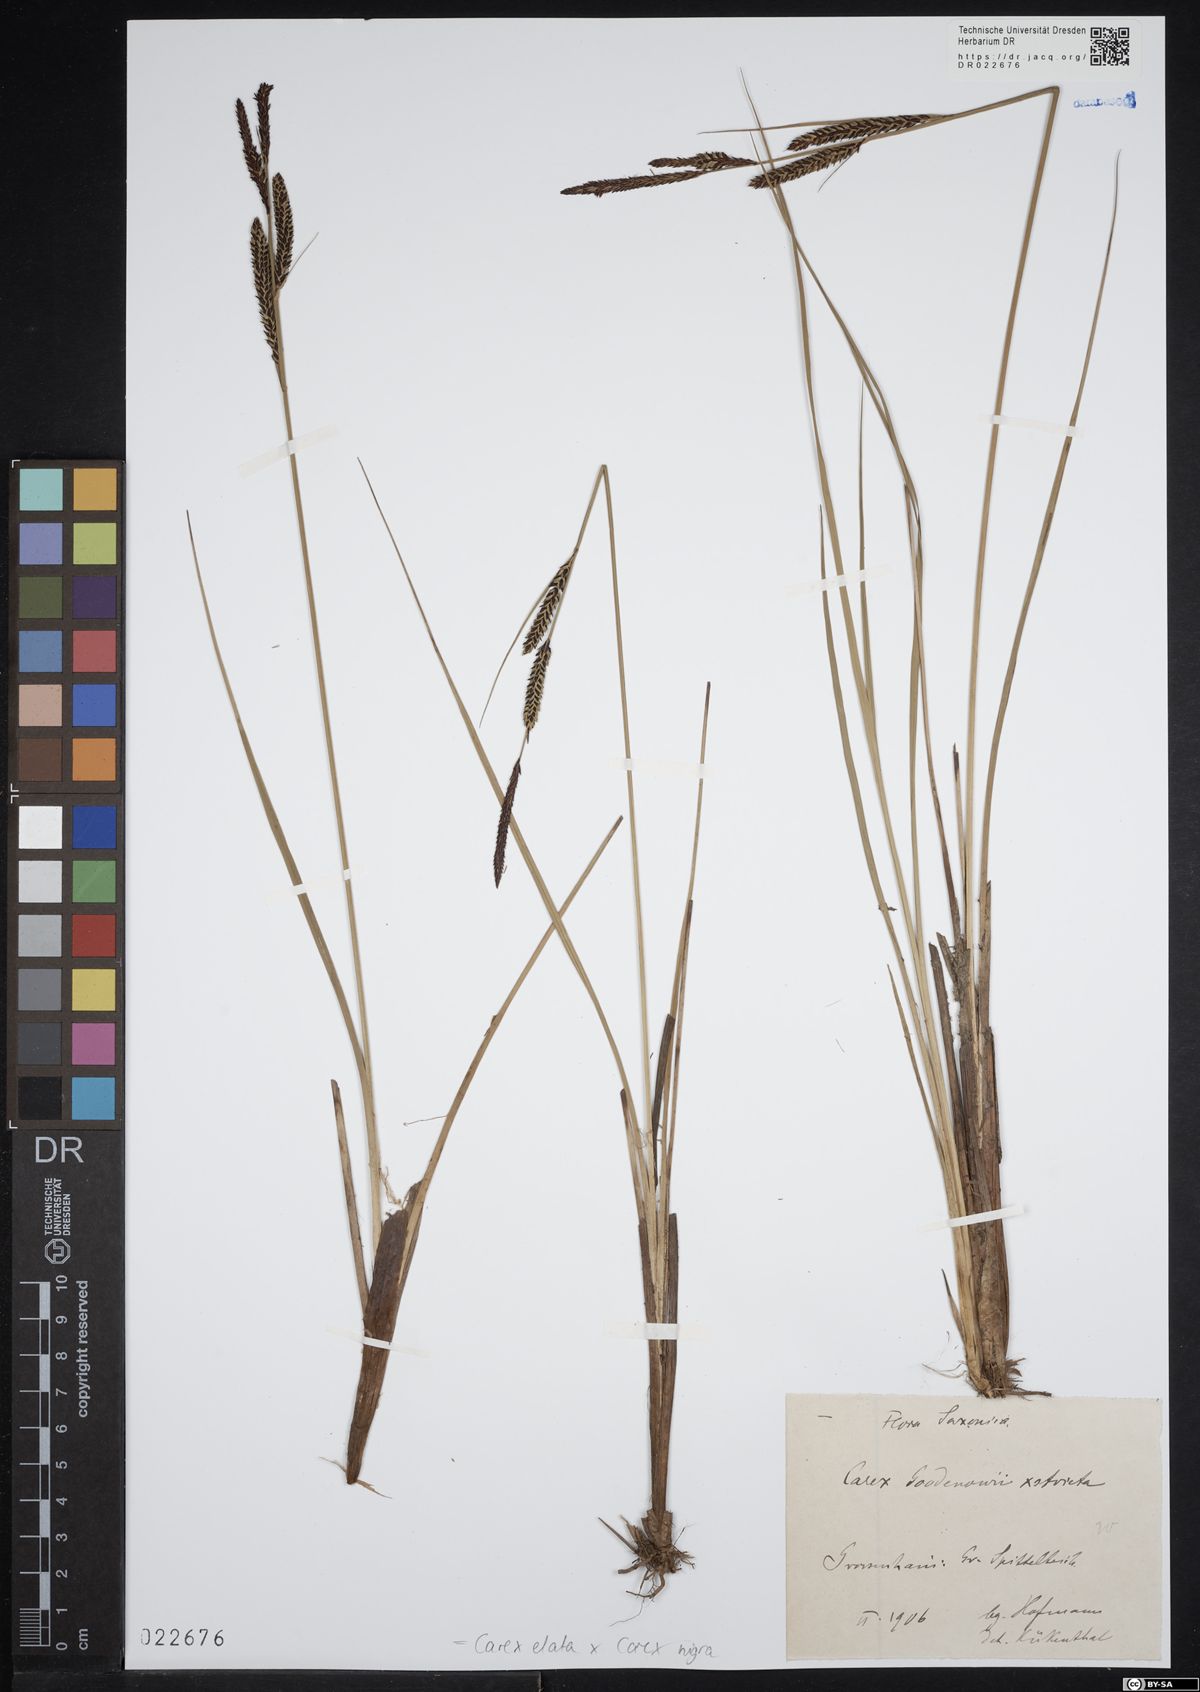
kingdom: Plantae
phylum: Tracheophyta
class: Liliopsida
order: Poales
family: Cyperaceae
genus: Carex
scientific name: Carex turfosa
